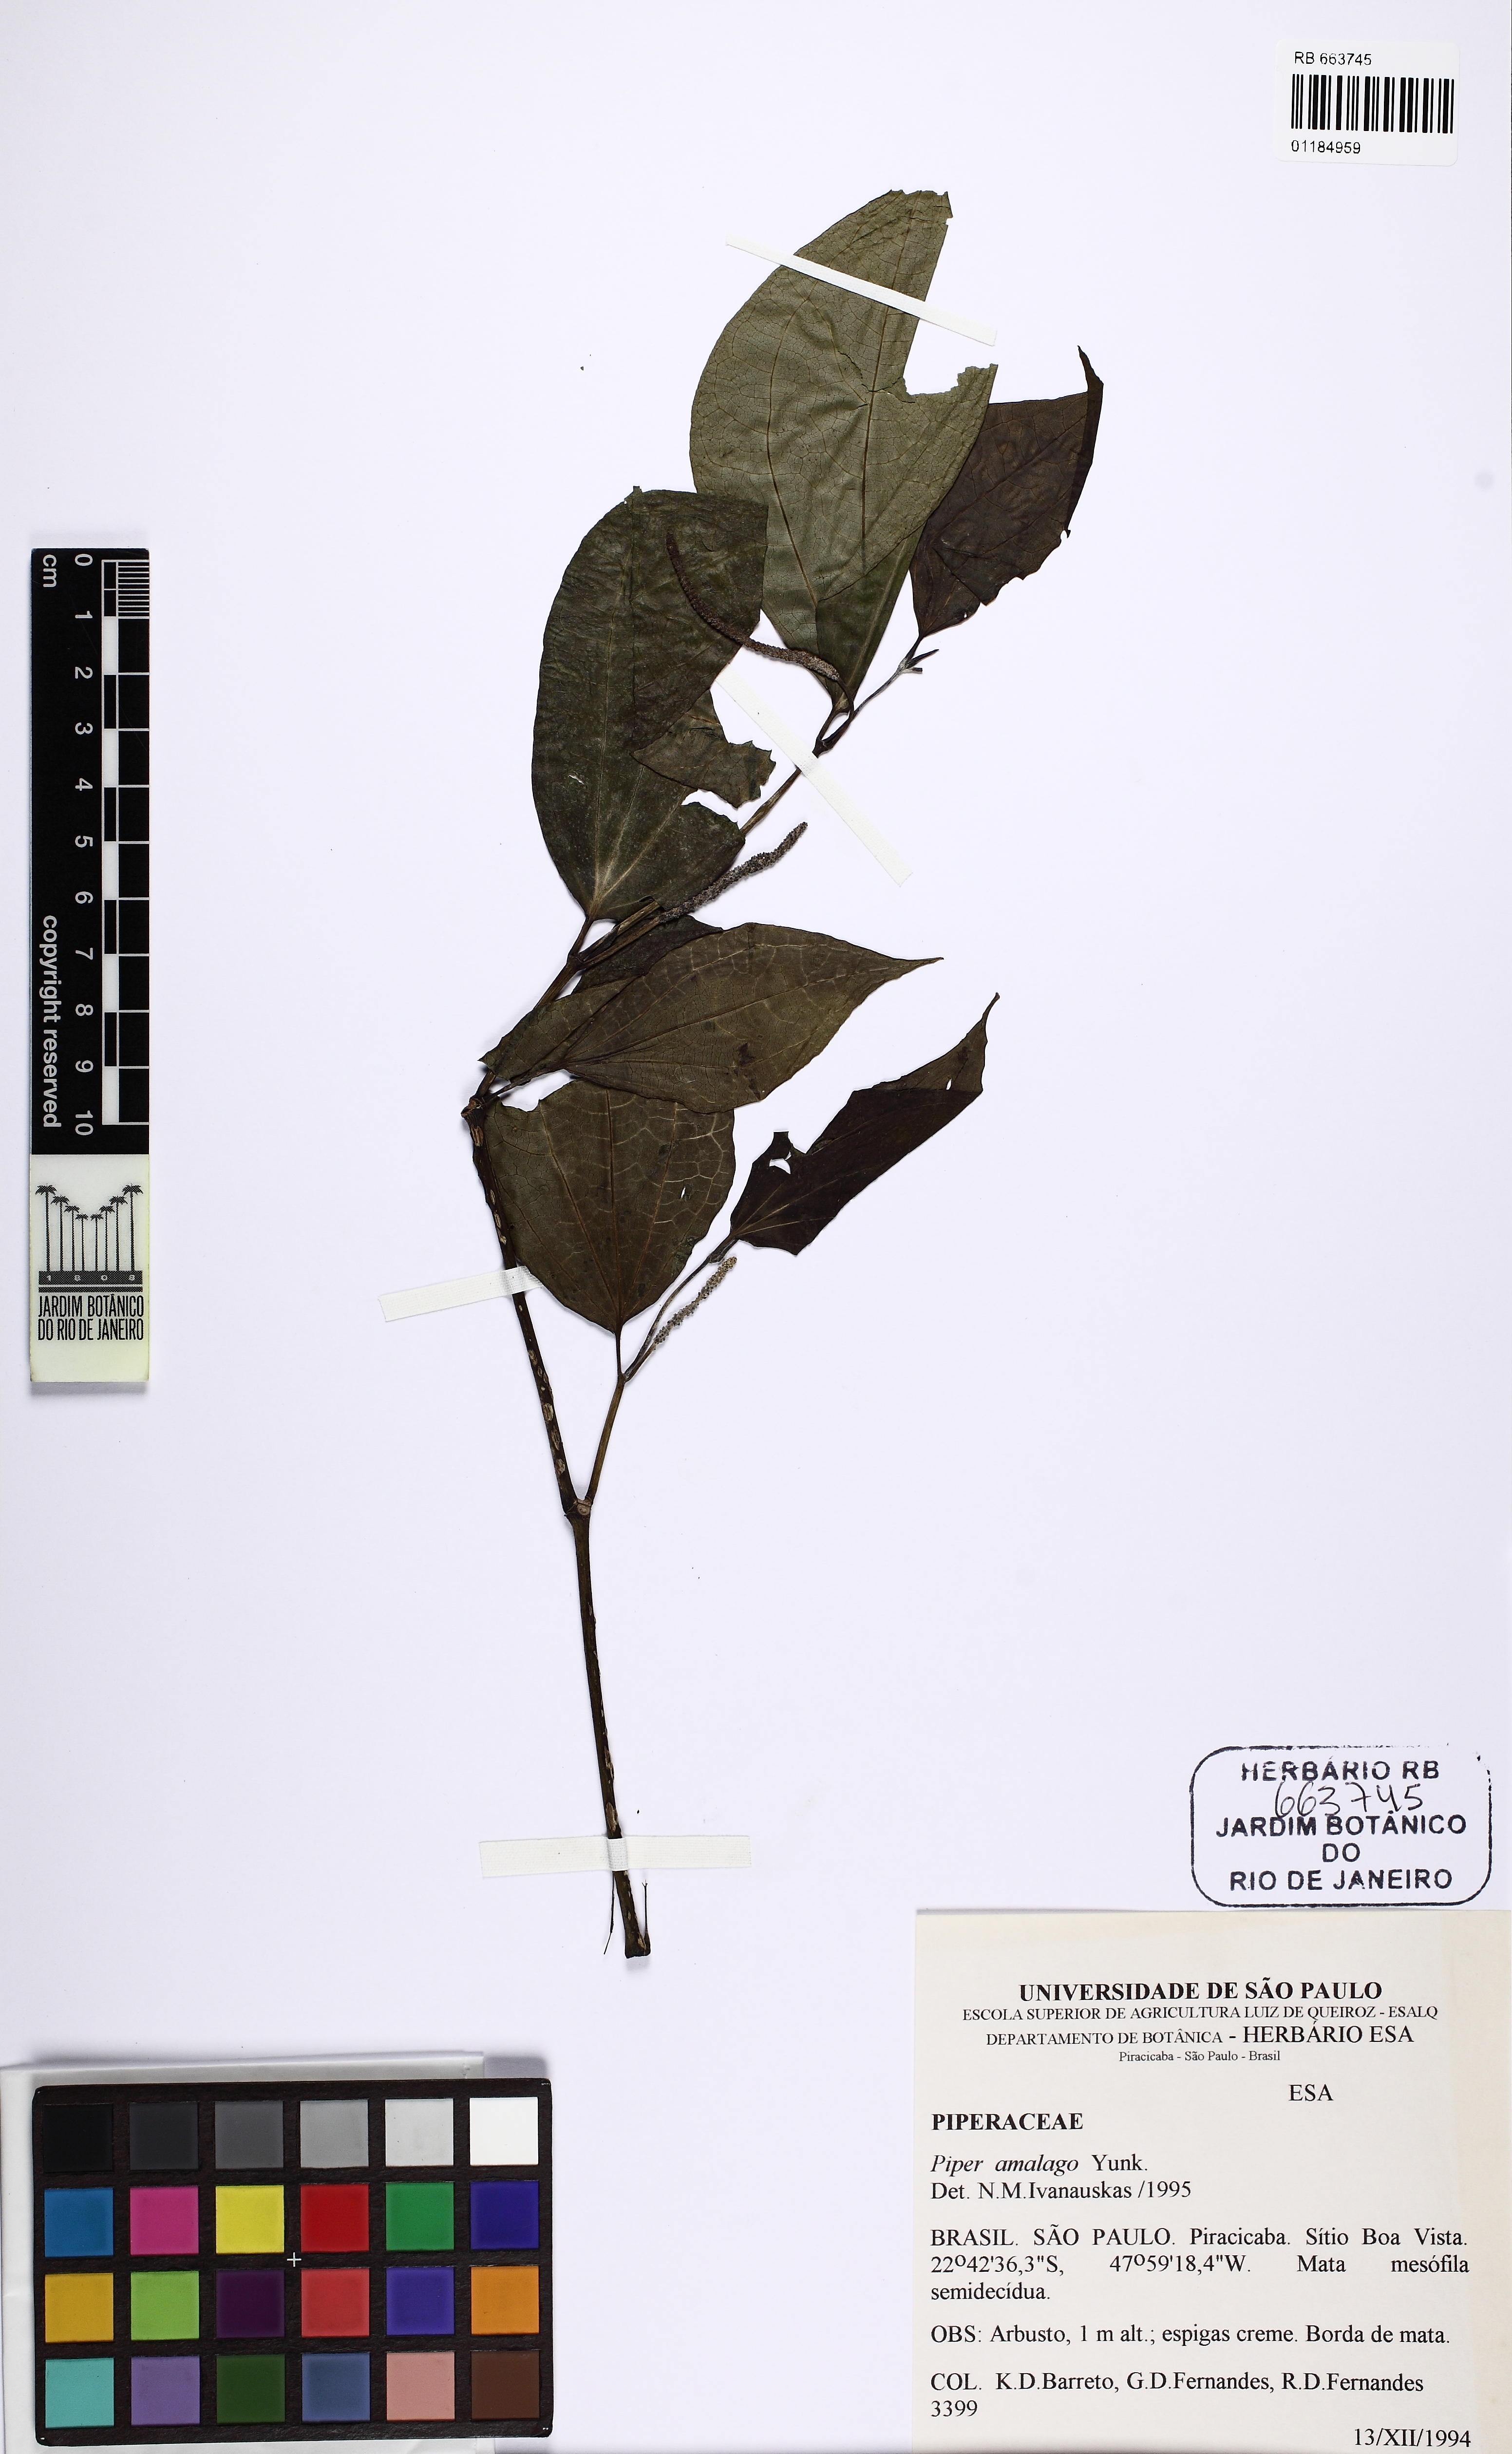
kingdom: Plantae
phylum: Tracheophyta
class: Magnoliopsida
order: Piperales
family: Piperaceae
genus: Piper
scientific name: Piper amalago
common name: Pepper-elder
